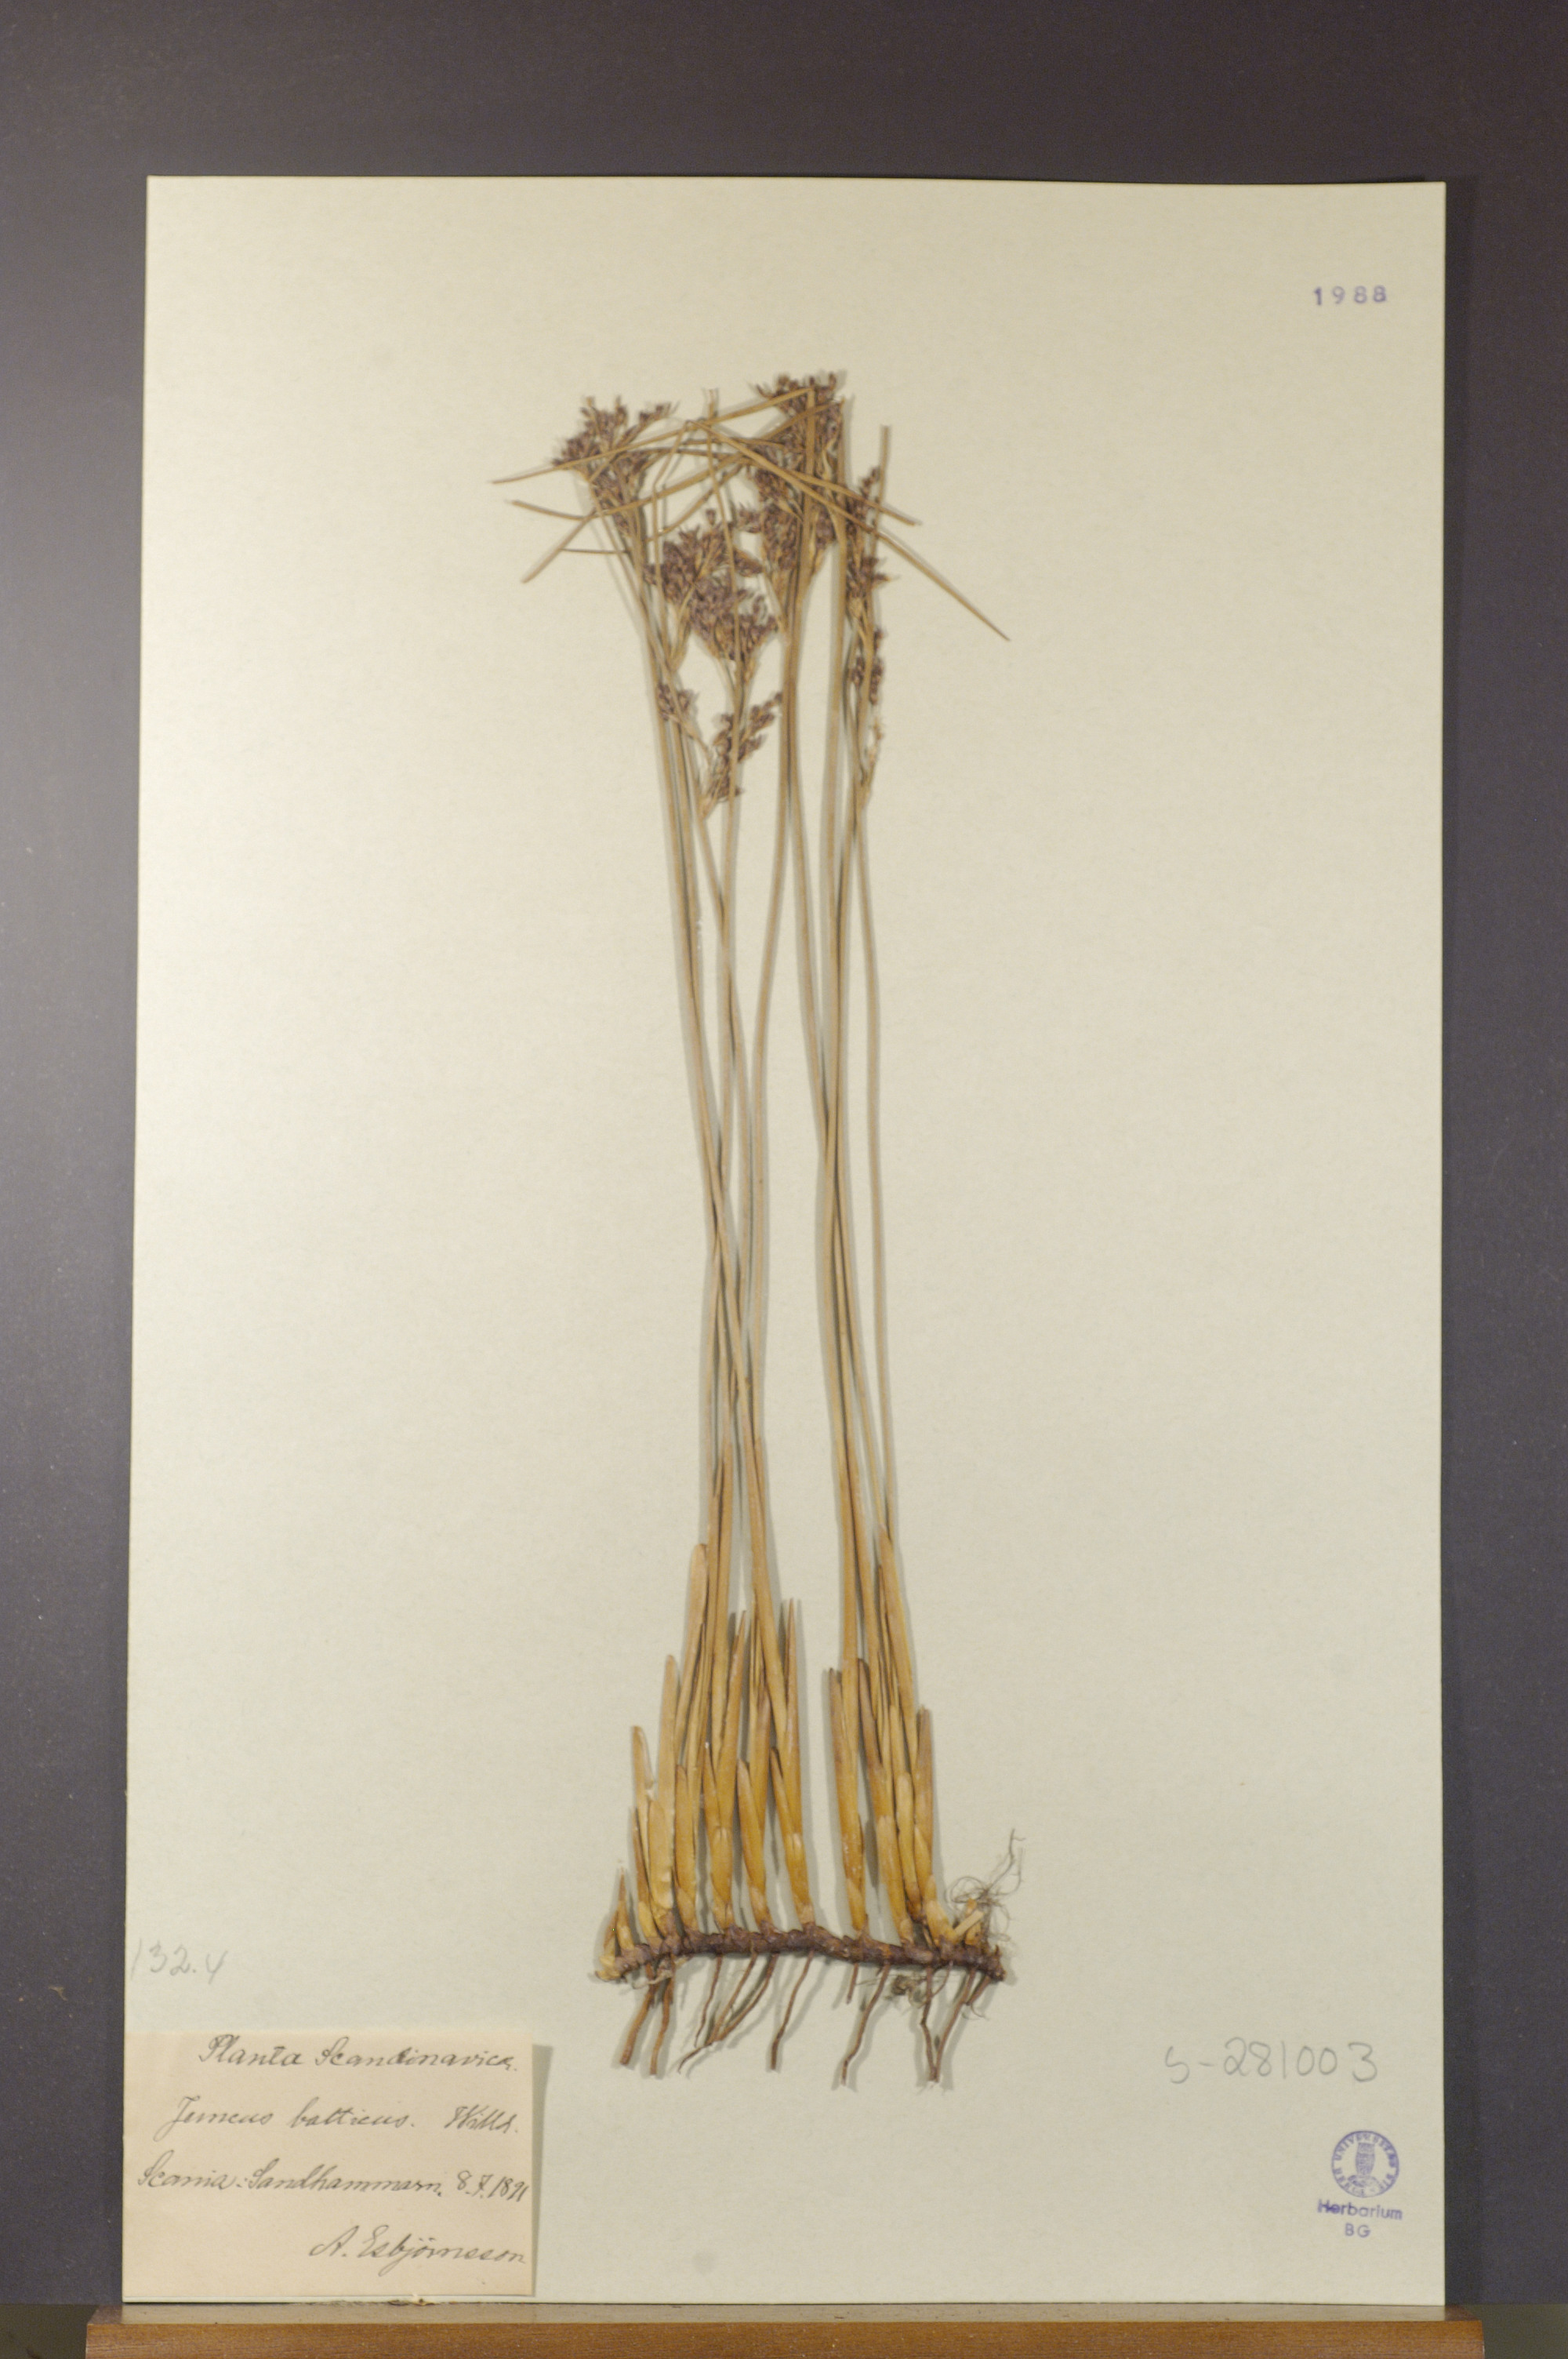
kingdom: Plantae
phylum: Tracheophyta
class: Liliopsida
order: Poales
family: Juncaceae
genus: Juncus
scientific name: Juncus balticus
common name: Baltic rush
